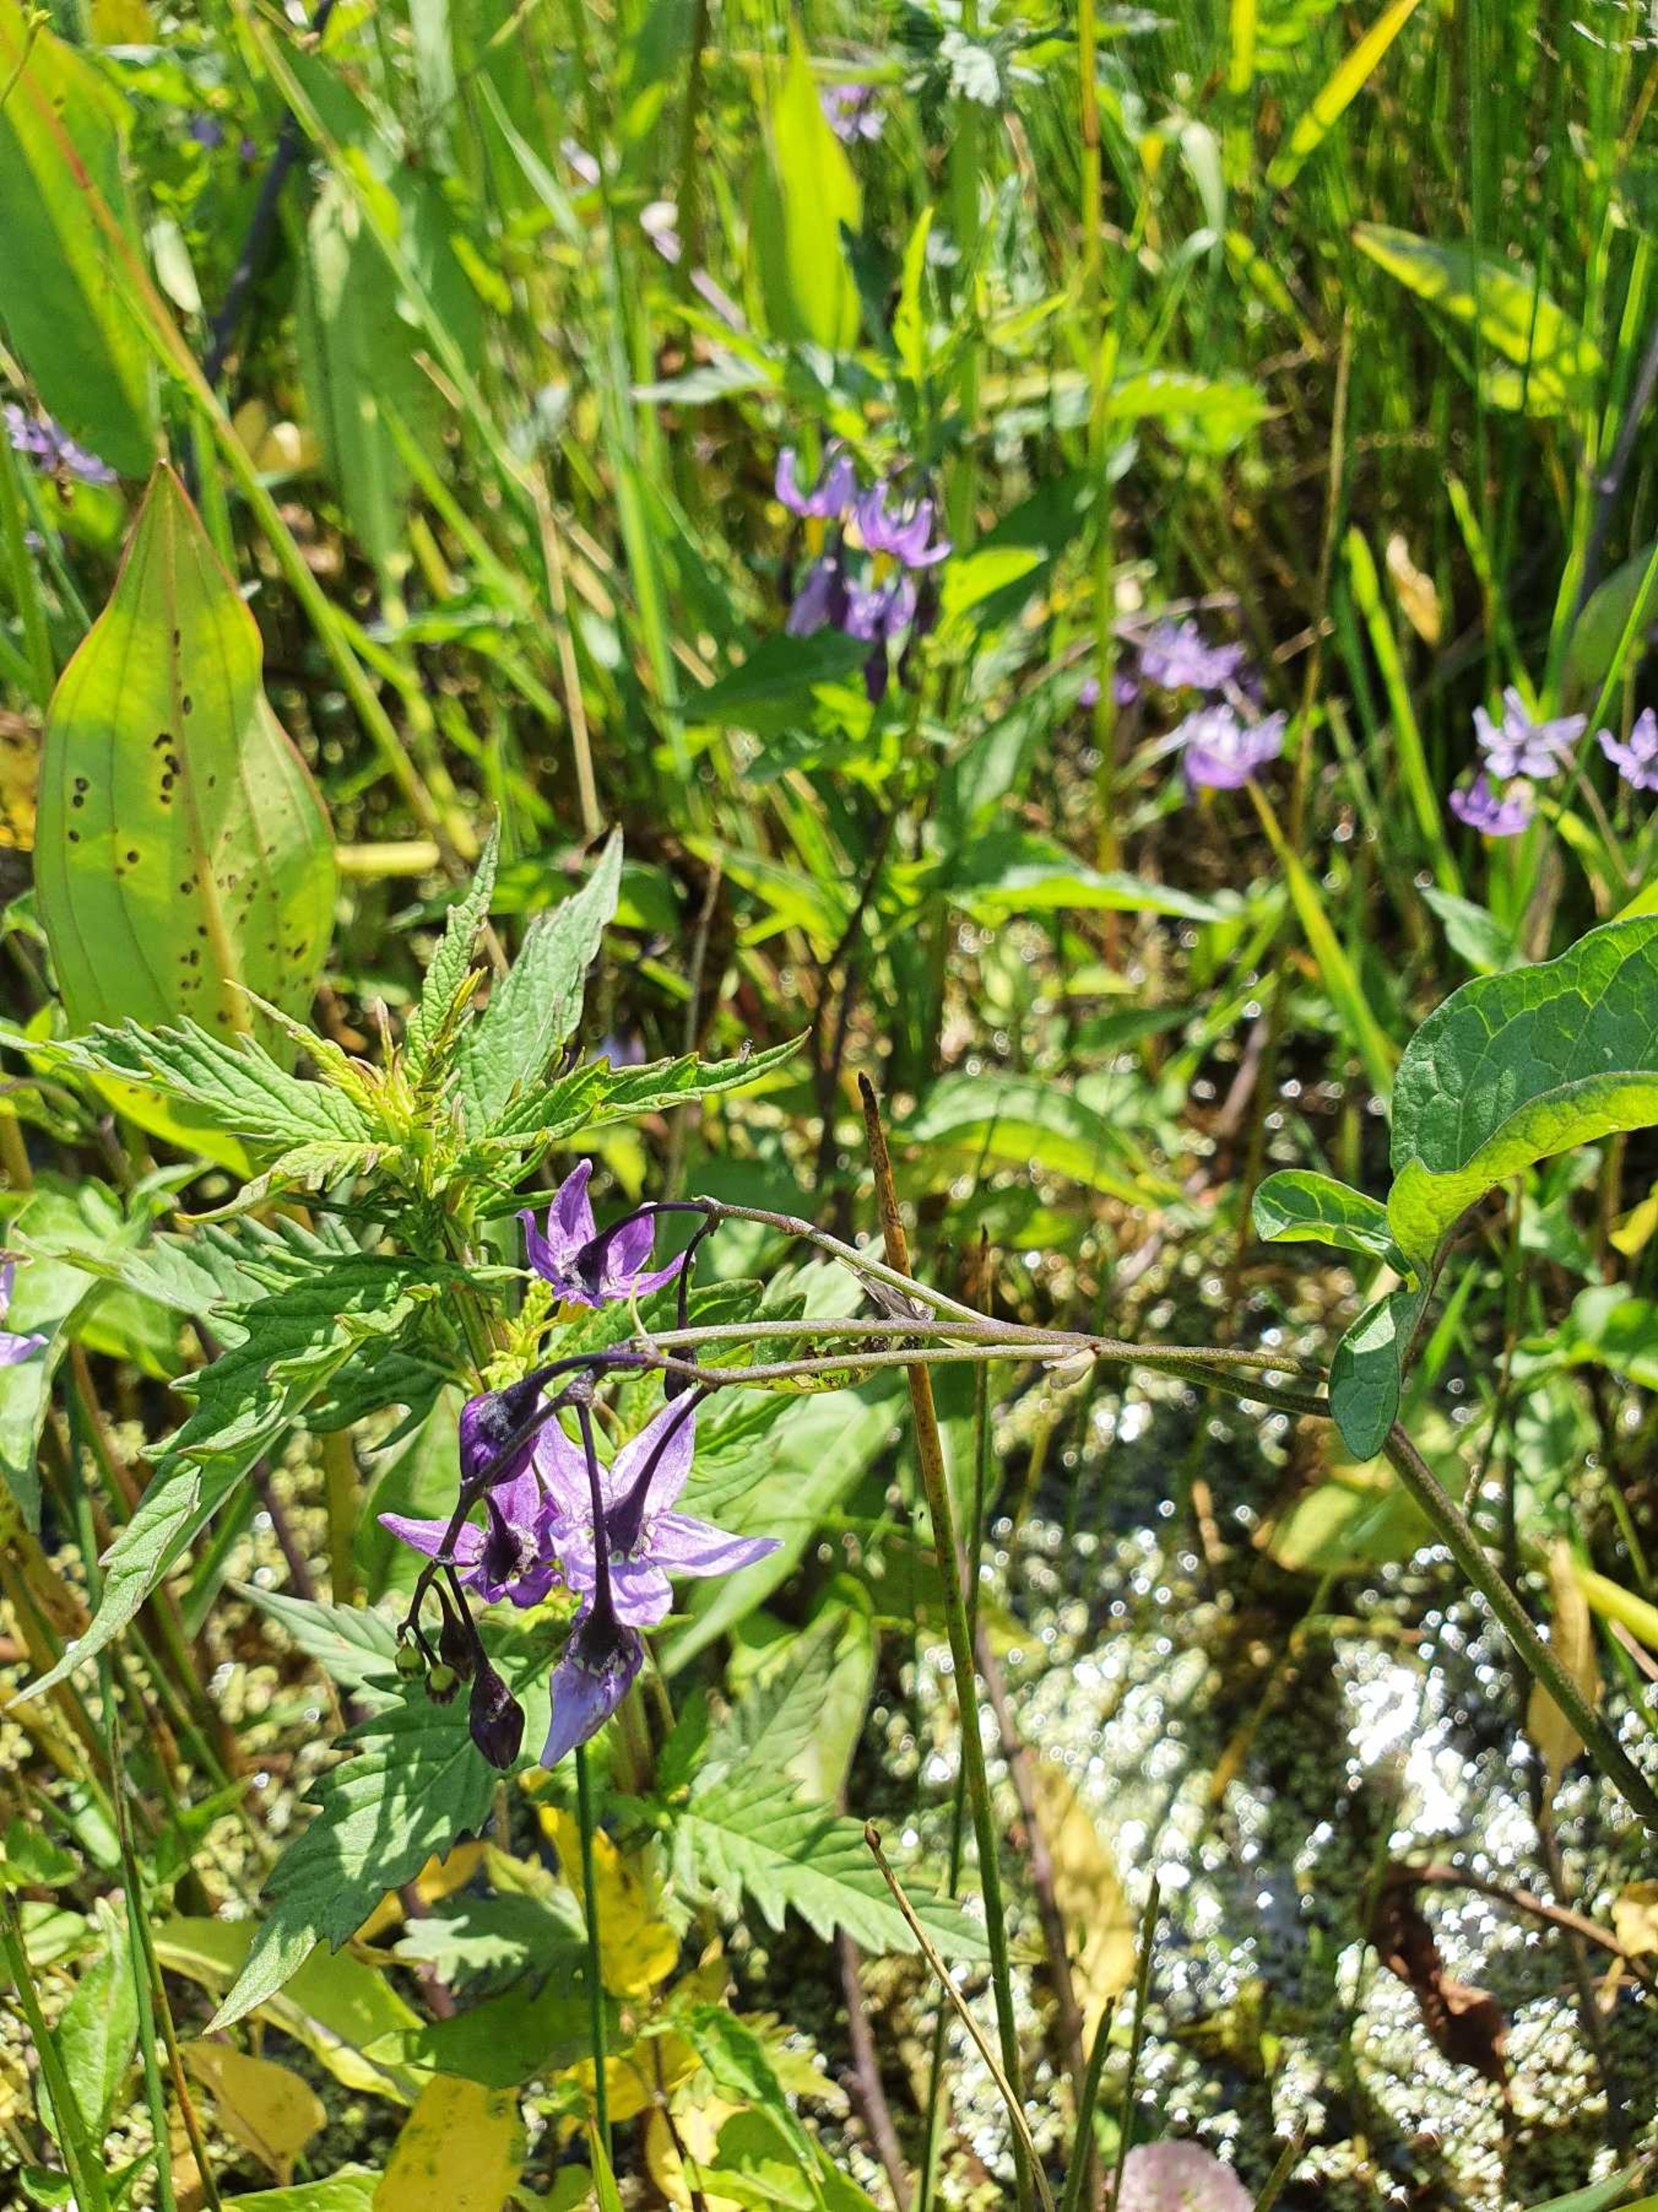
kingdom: Plantae
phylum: Tracheophyta
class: Magnoliopsida
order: Solanales
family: Solanaceae
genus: Solanum
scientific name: Solanum dulcamara
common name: Bittersød natskygge (varietet)
